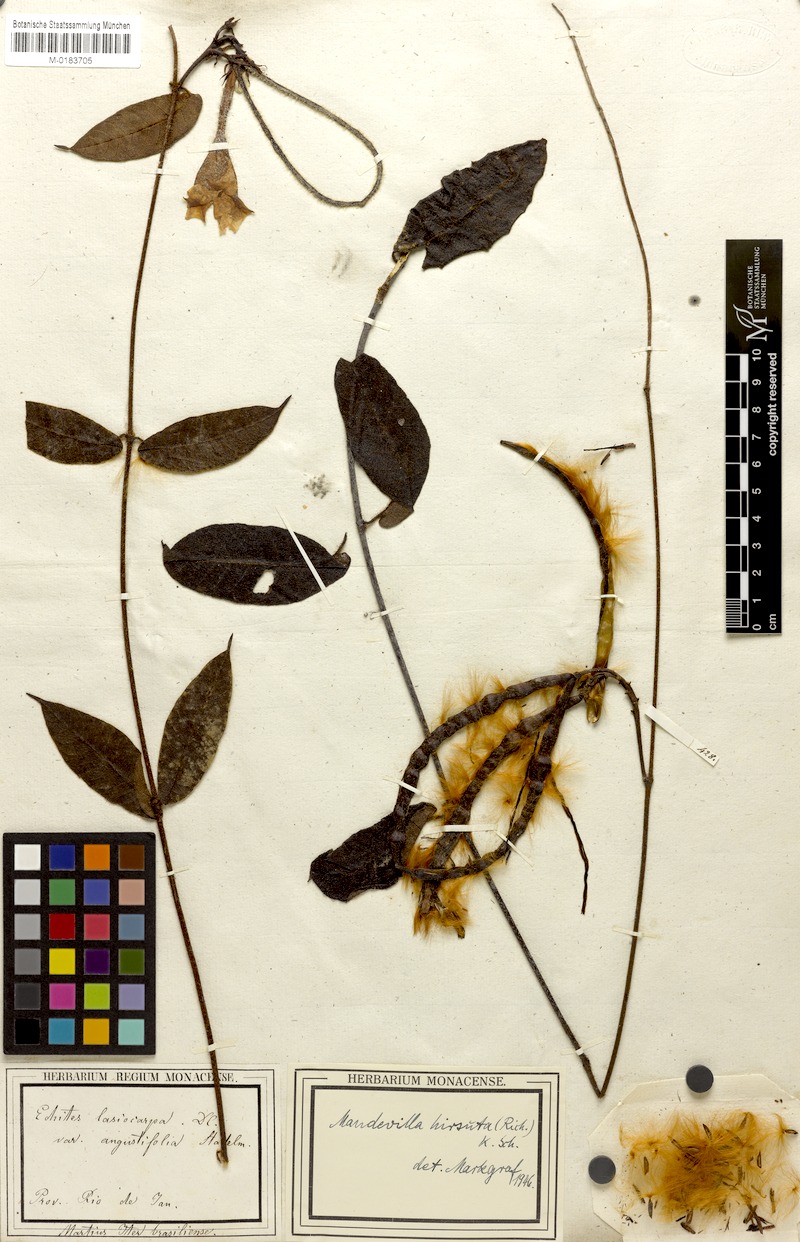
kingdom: Plantae
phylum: Tracheophyta
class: Magnoliopsida
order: Gentianales
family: Apocynaceae
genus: Mandevilla
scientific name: Mandevilla hirsuta
